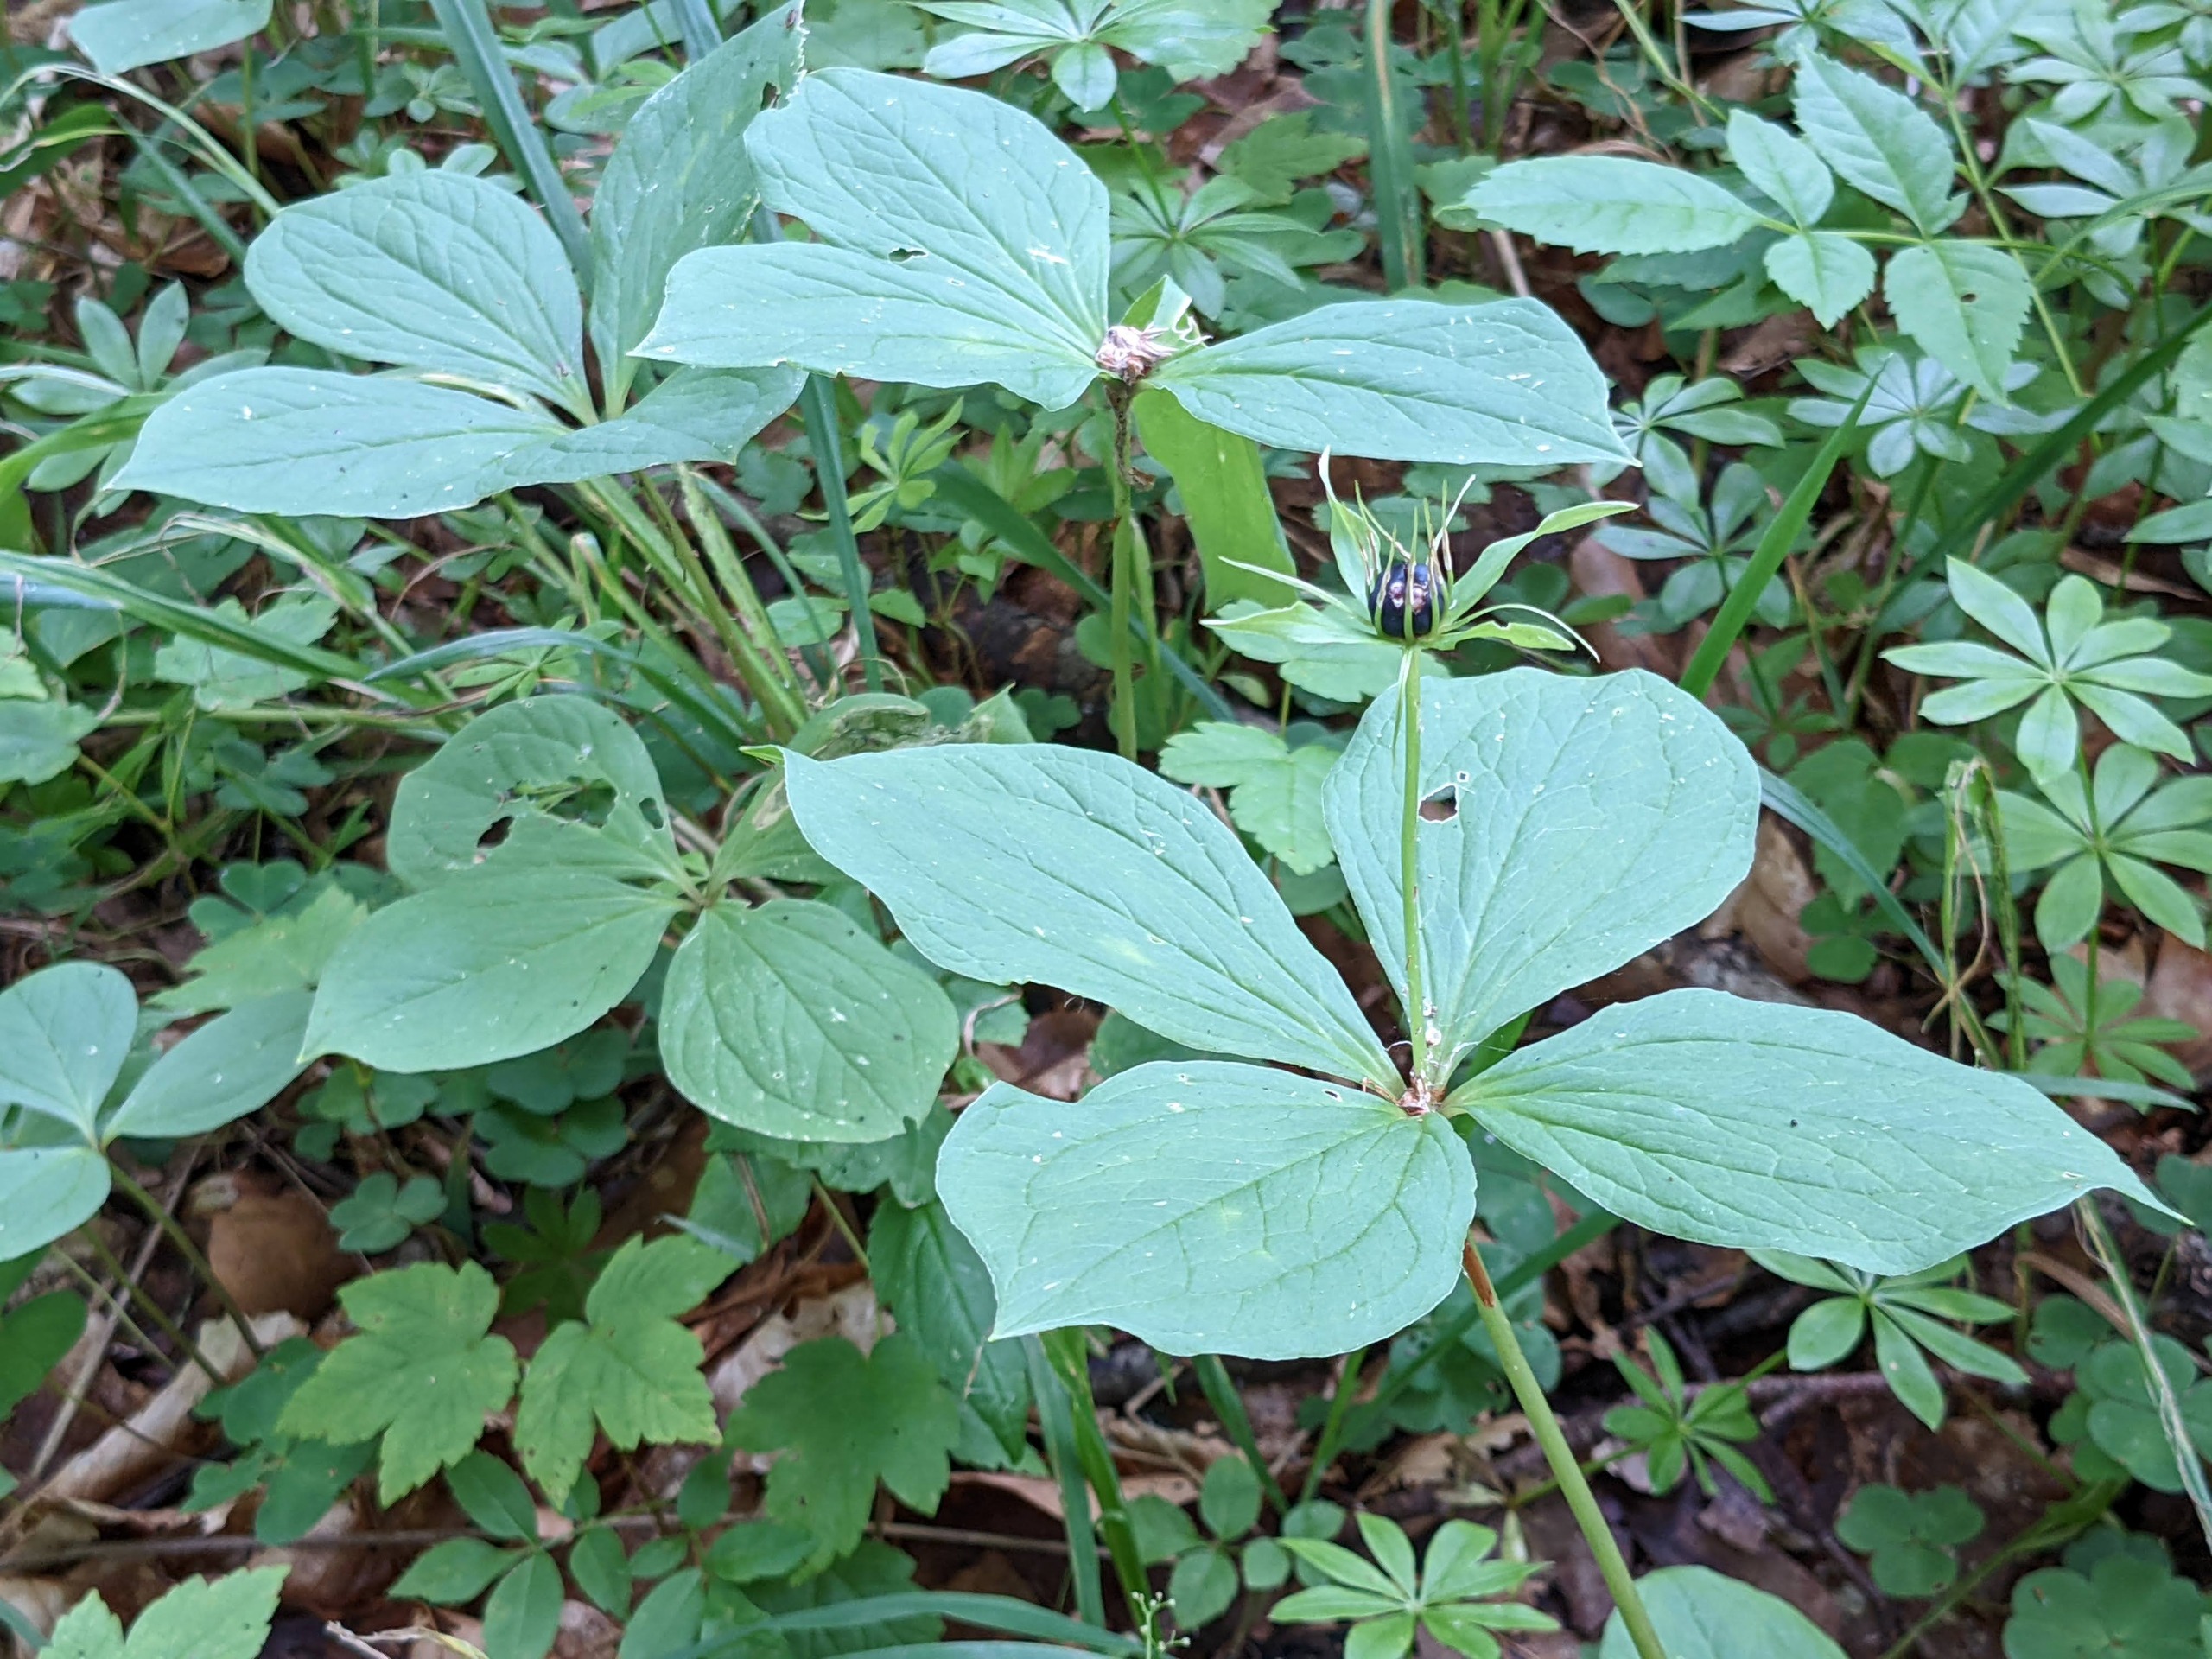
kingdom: Plantae
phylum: Tracheophyta
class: Liliopsida
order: Liliales
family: Melanthiaceae
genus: Paris
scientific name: Paris quadrifolia
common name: Firblad
